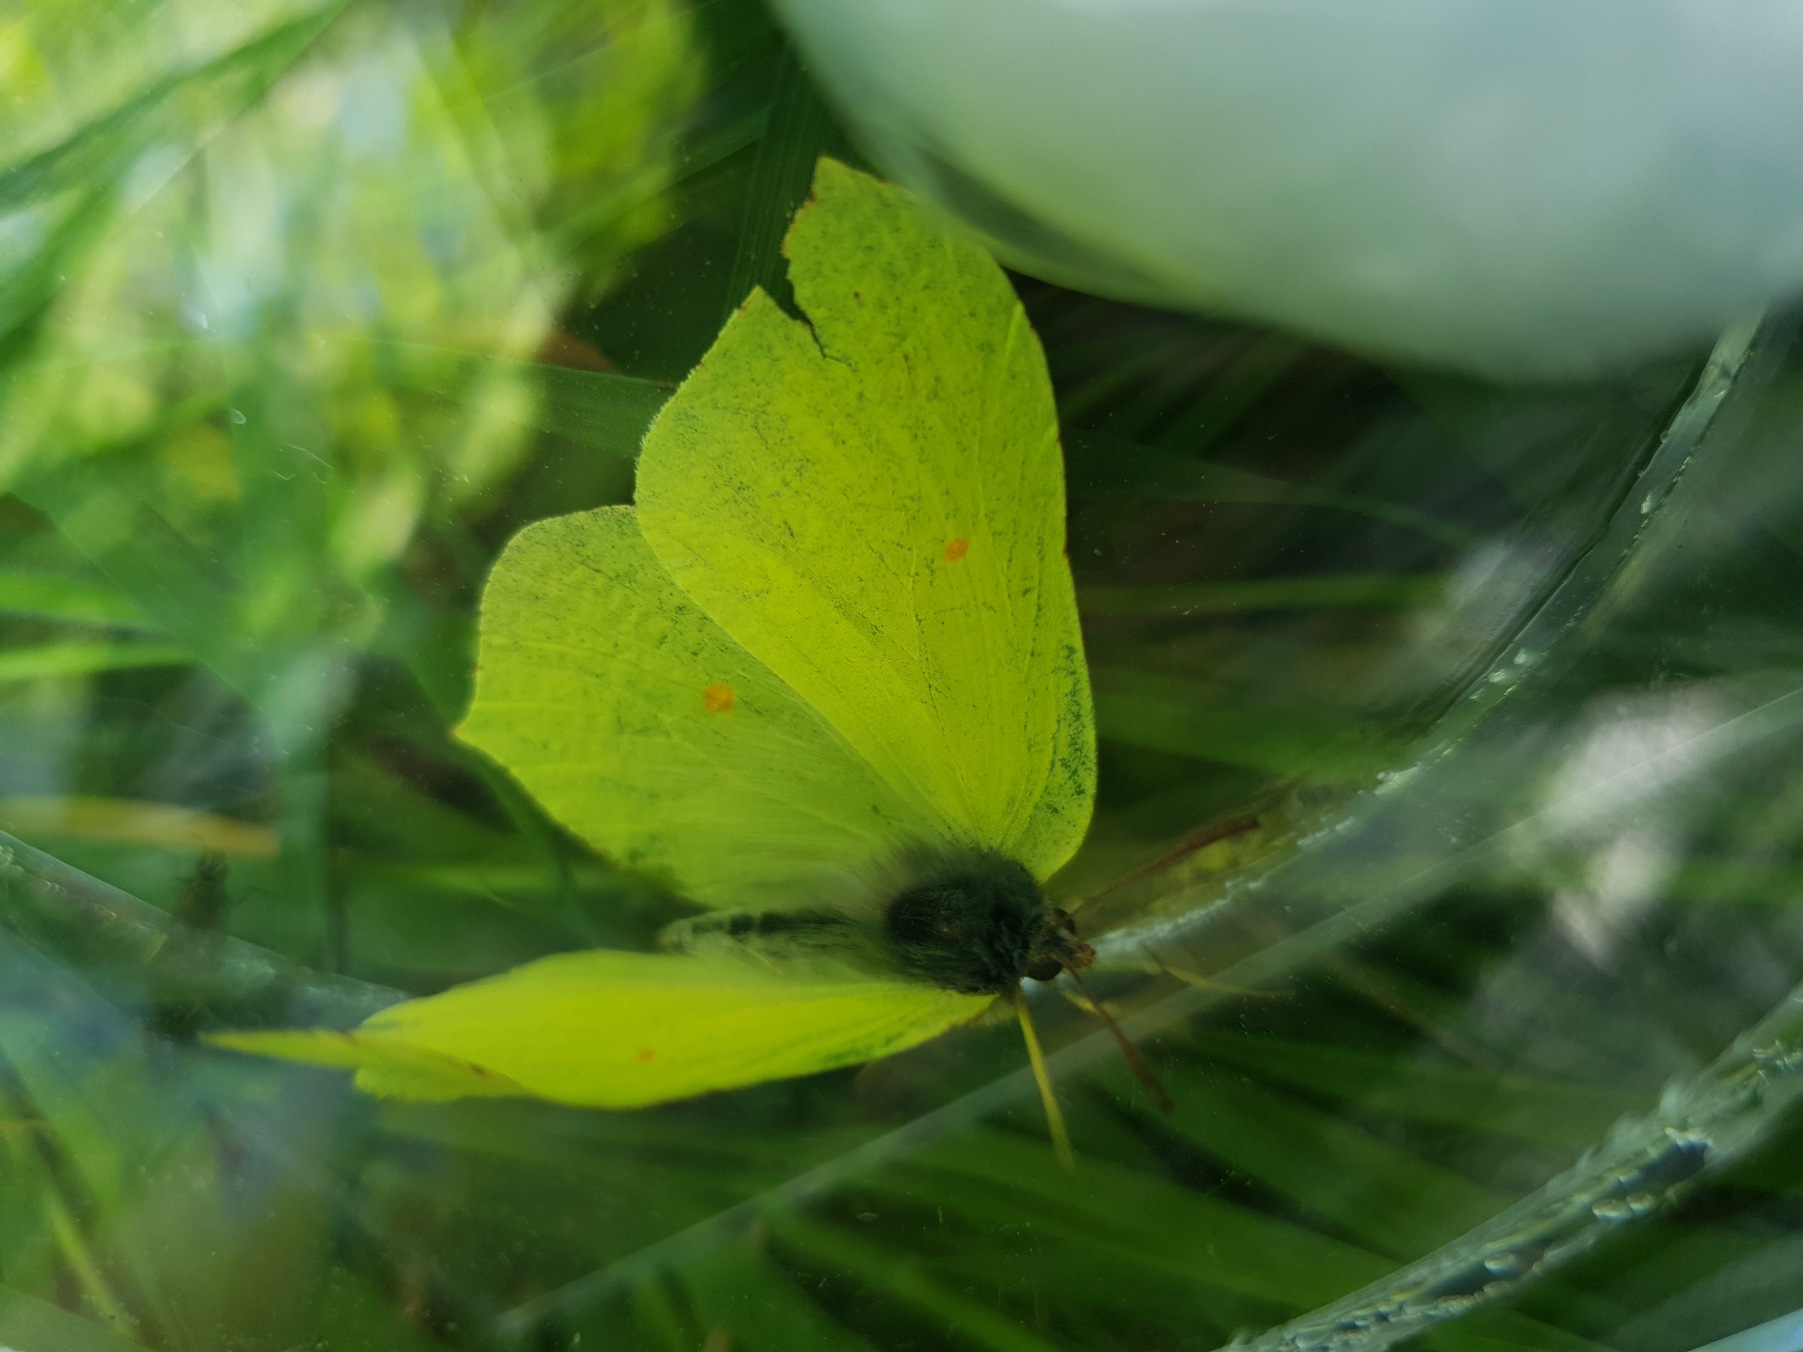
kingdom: Animalia
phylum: Arthropoda
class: Insecta
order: Lepidoptera
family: Pieridae
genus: Gonepteryx
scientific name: Gonepteryx rhamni
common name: Citronsommerfugl
